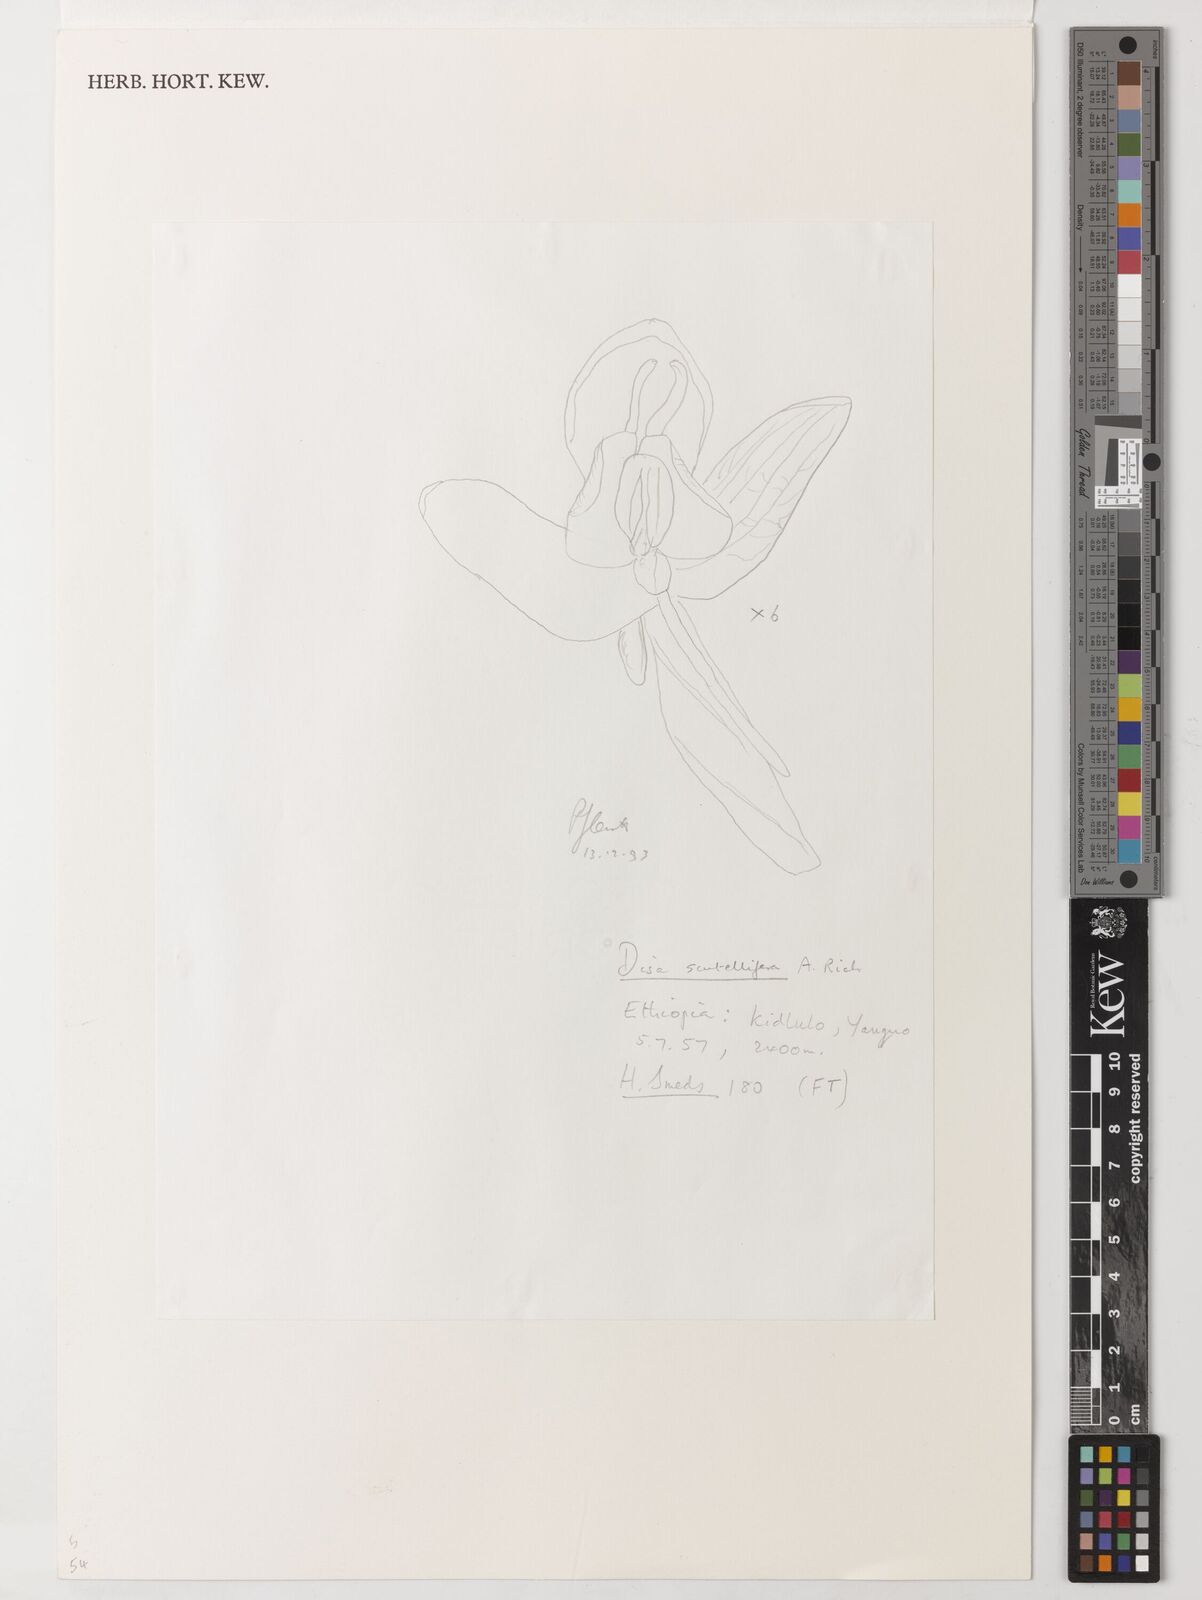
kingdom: Plantae
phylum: Tracheophyta
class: Liliopsida
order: Asparagales
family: Orchidaceae
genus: Disa
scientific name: Disa scutellifera
